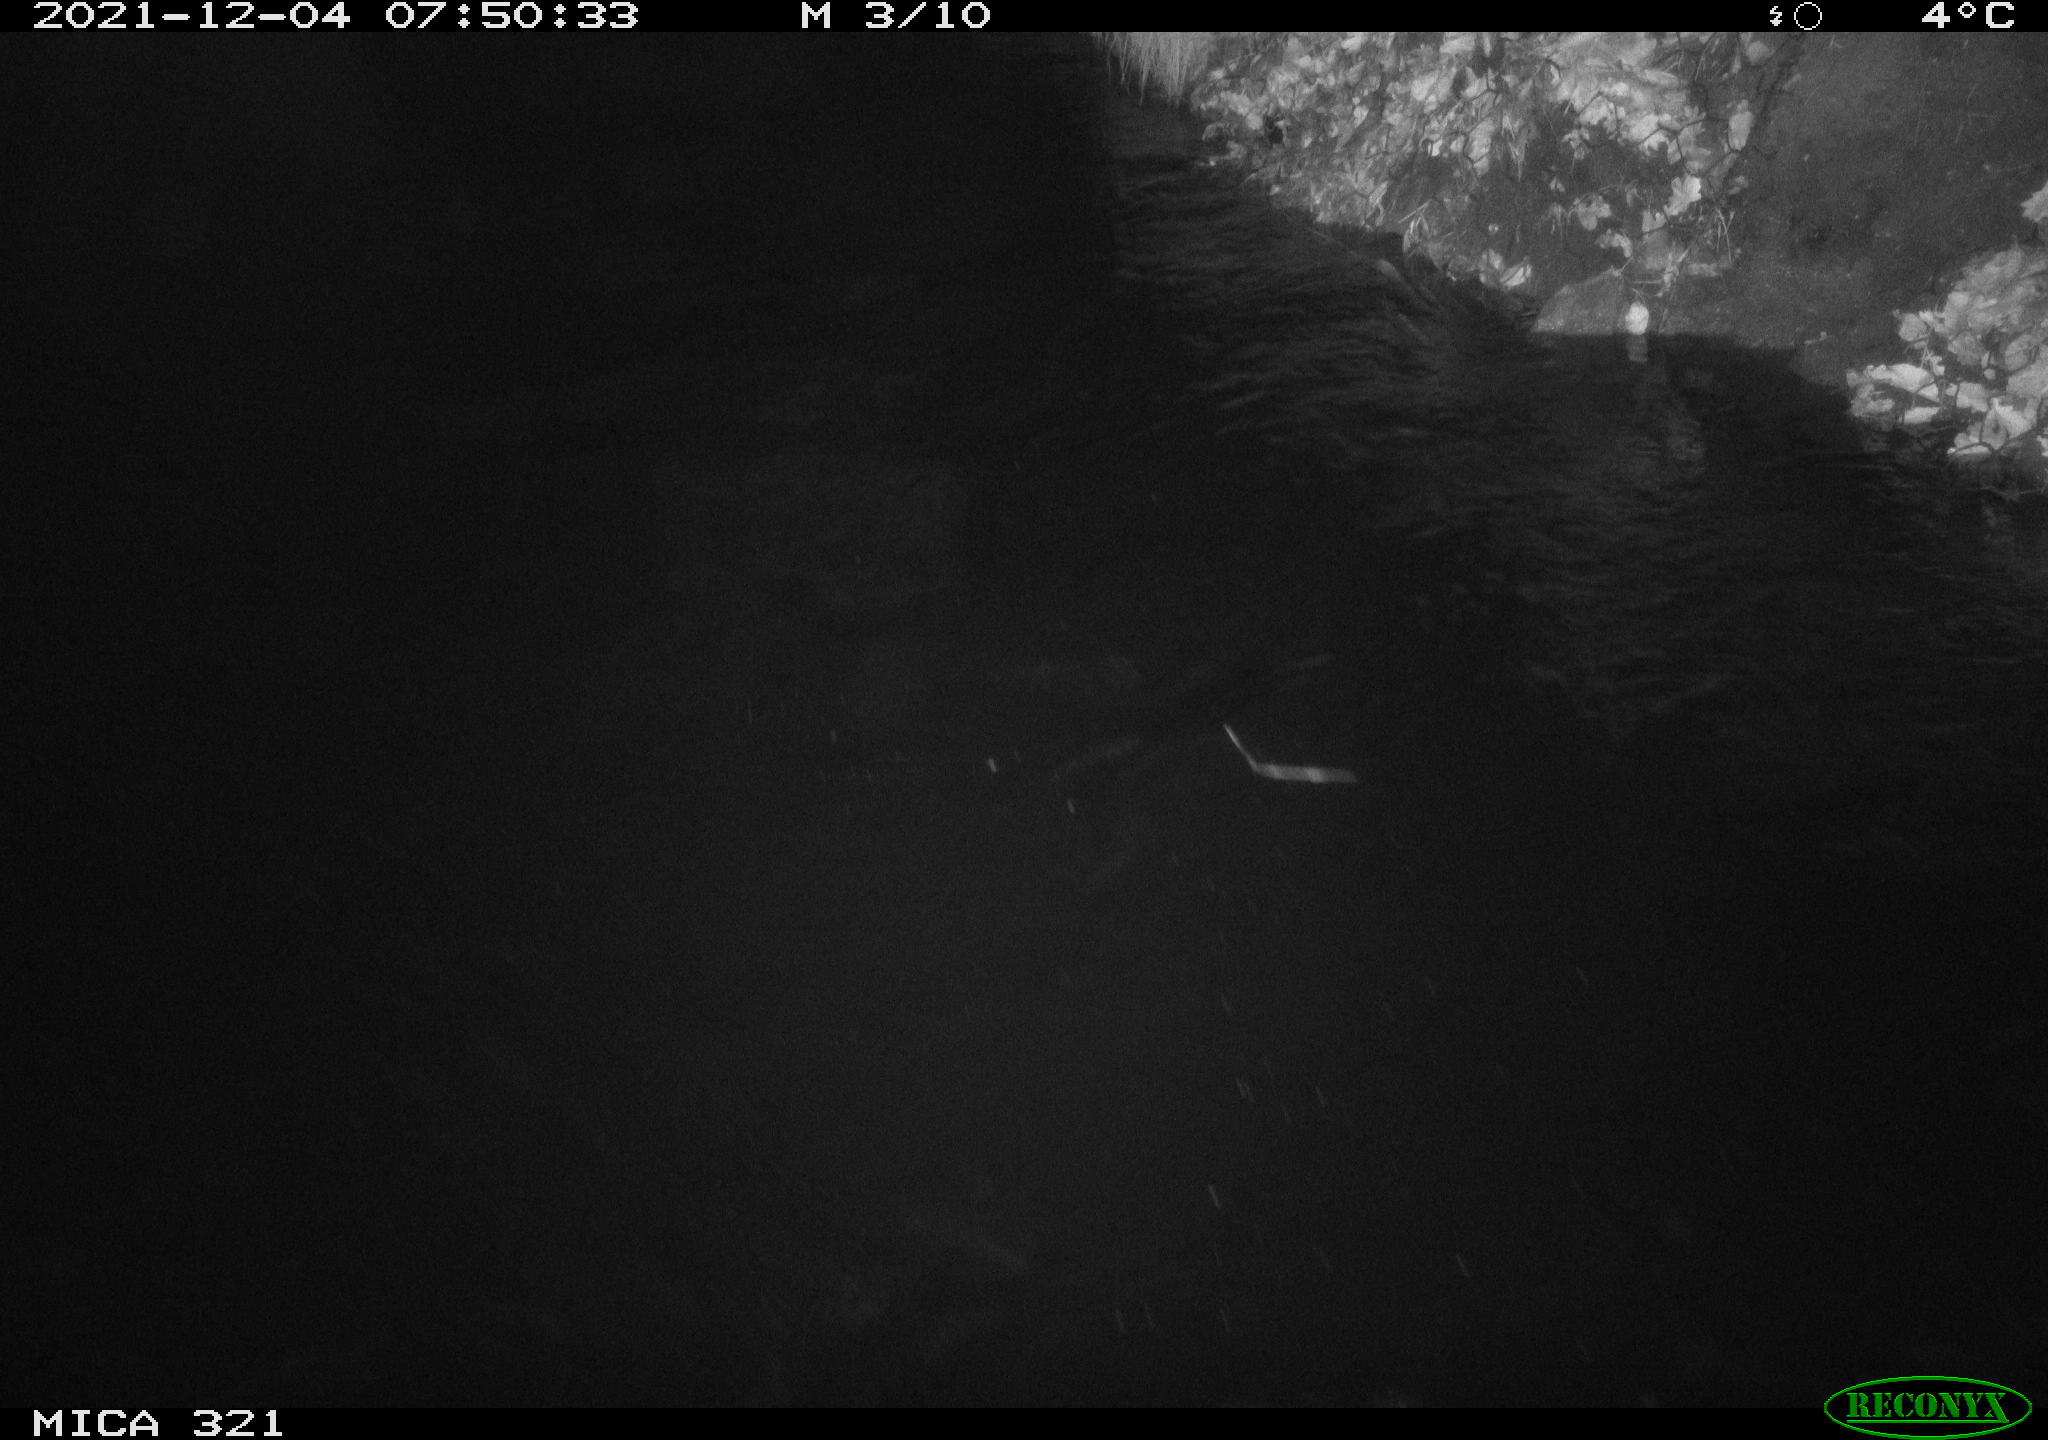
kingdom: Animalia
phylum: Chordata
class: Aves
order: Anseriformes
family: Anatidae
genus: Anas
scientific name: Anas
